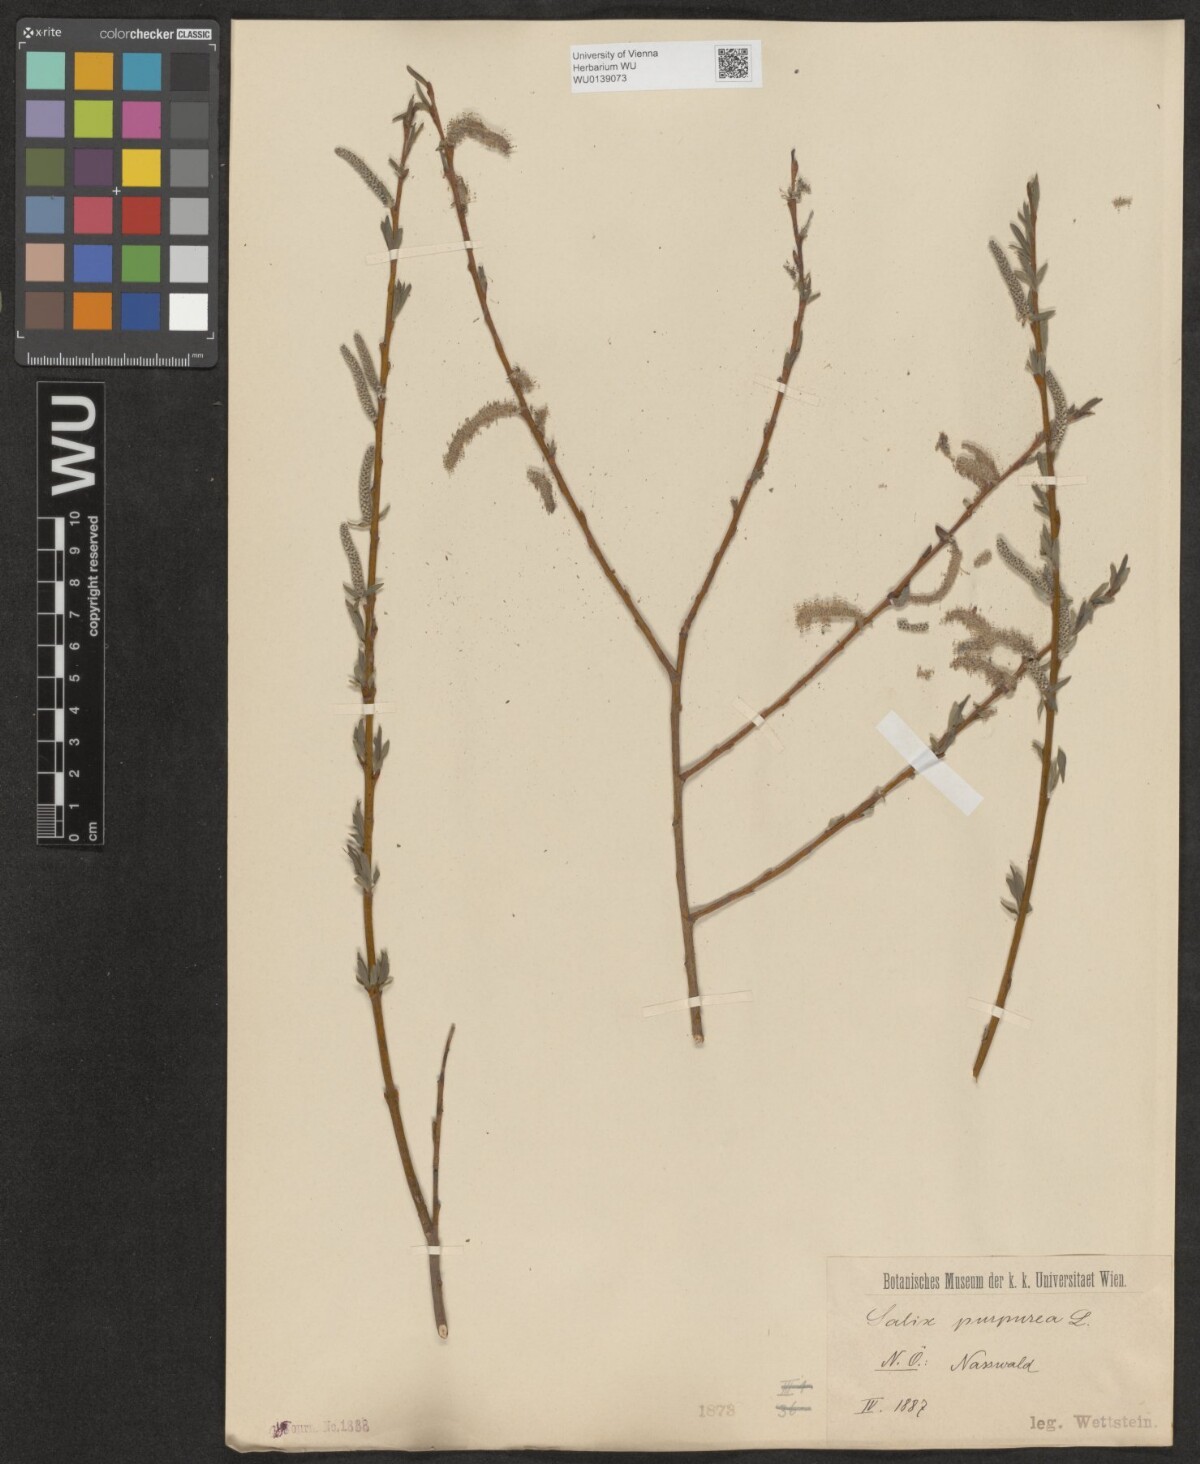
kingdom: Plantae
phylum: Tracheophyta
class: Magnoliopsida
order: Malpighiales
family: Salicaceae
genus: Salix
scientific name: Salix purpurea
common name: Purple willow
